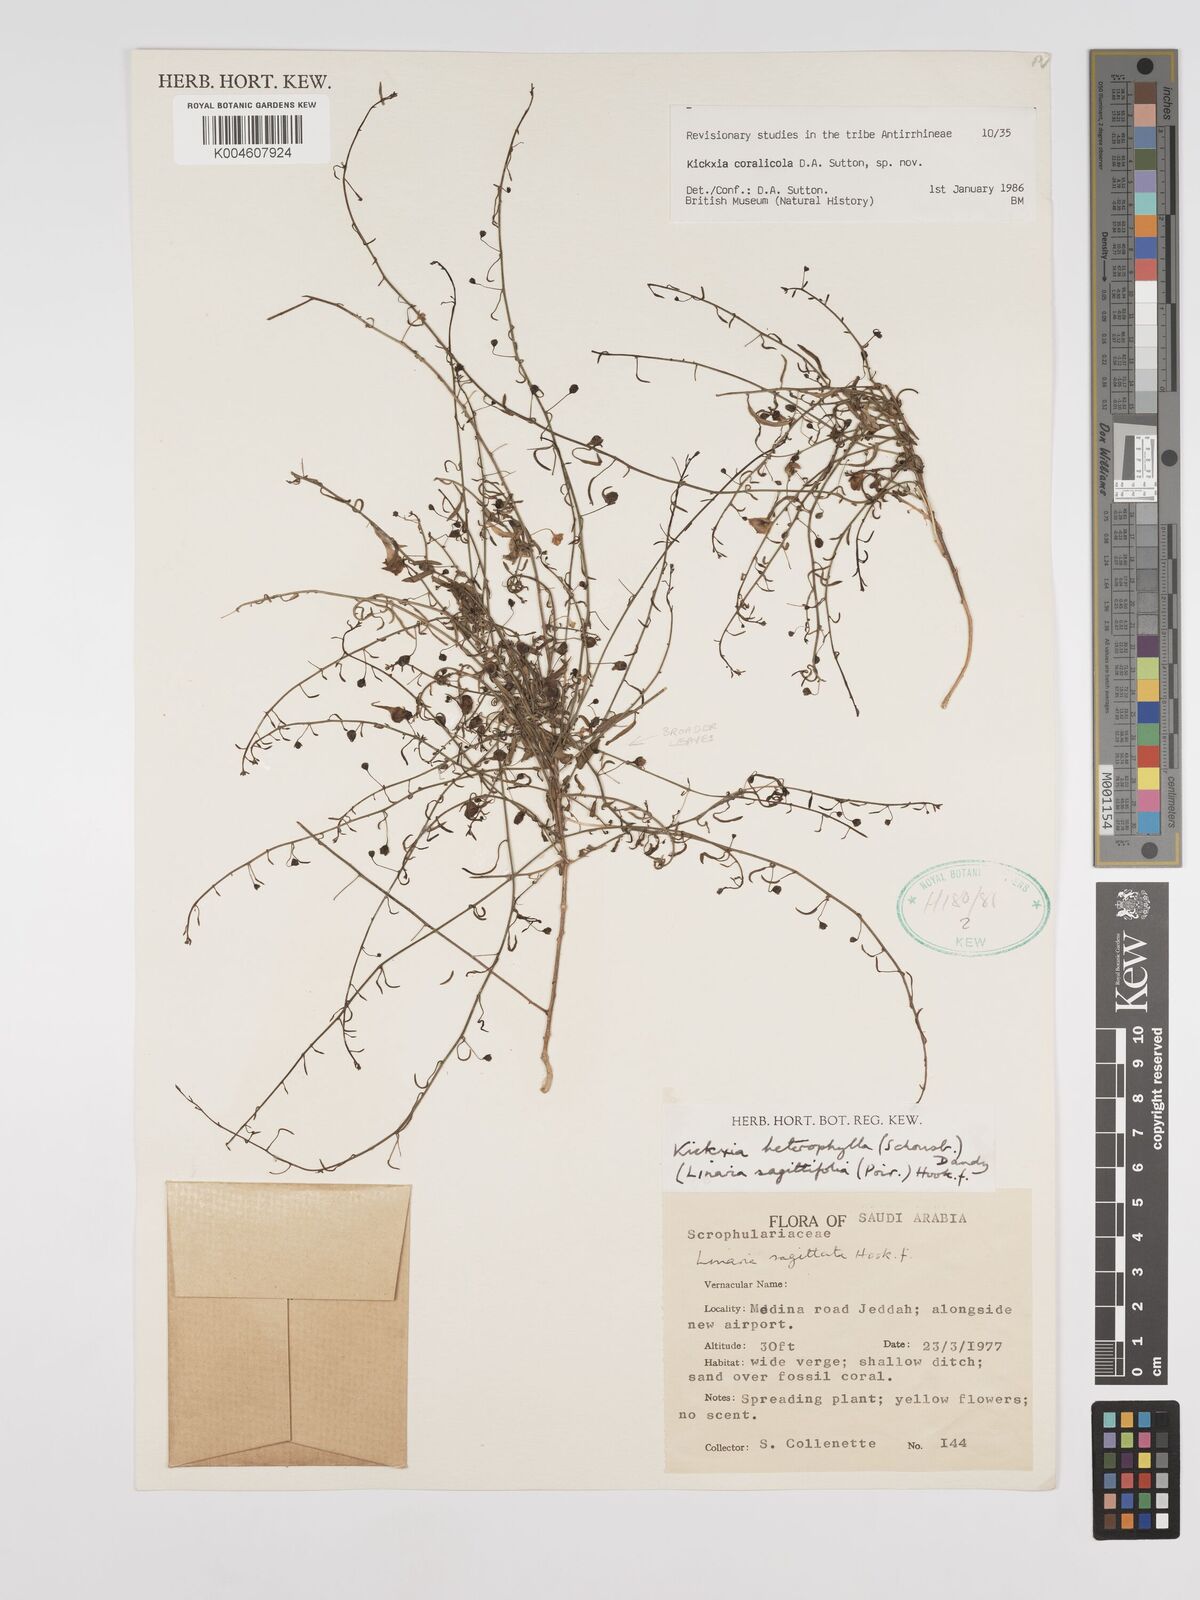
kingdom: Plantae
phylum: Tracheophyta
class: Magnoliopsida
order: Lamiales
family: Plantaginaceae
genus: Kickxia
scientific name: Kickxia corallicola
